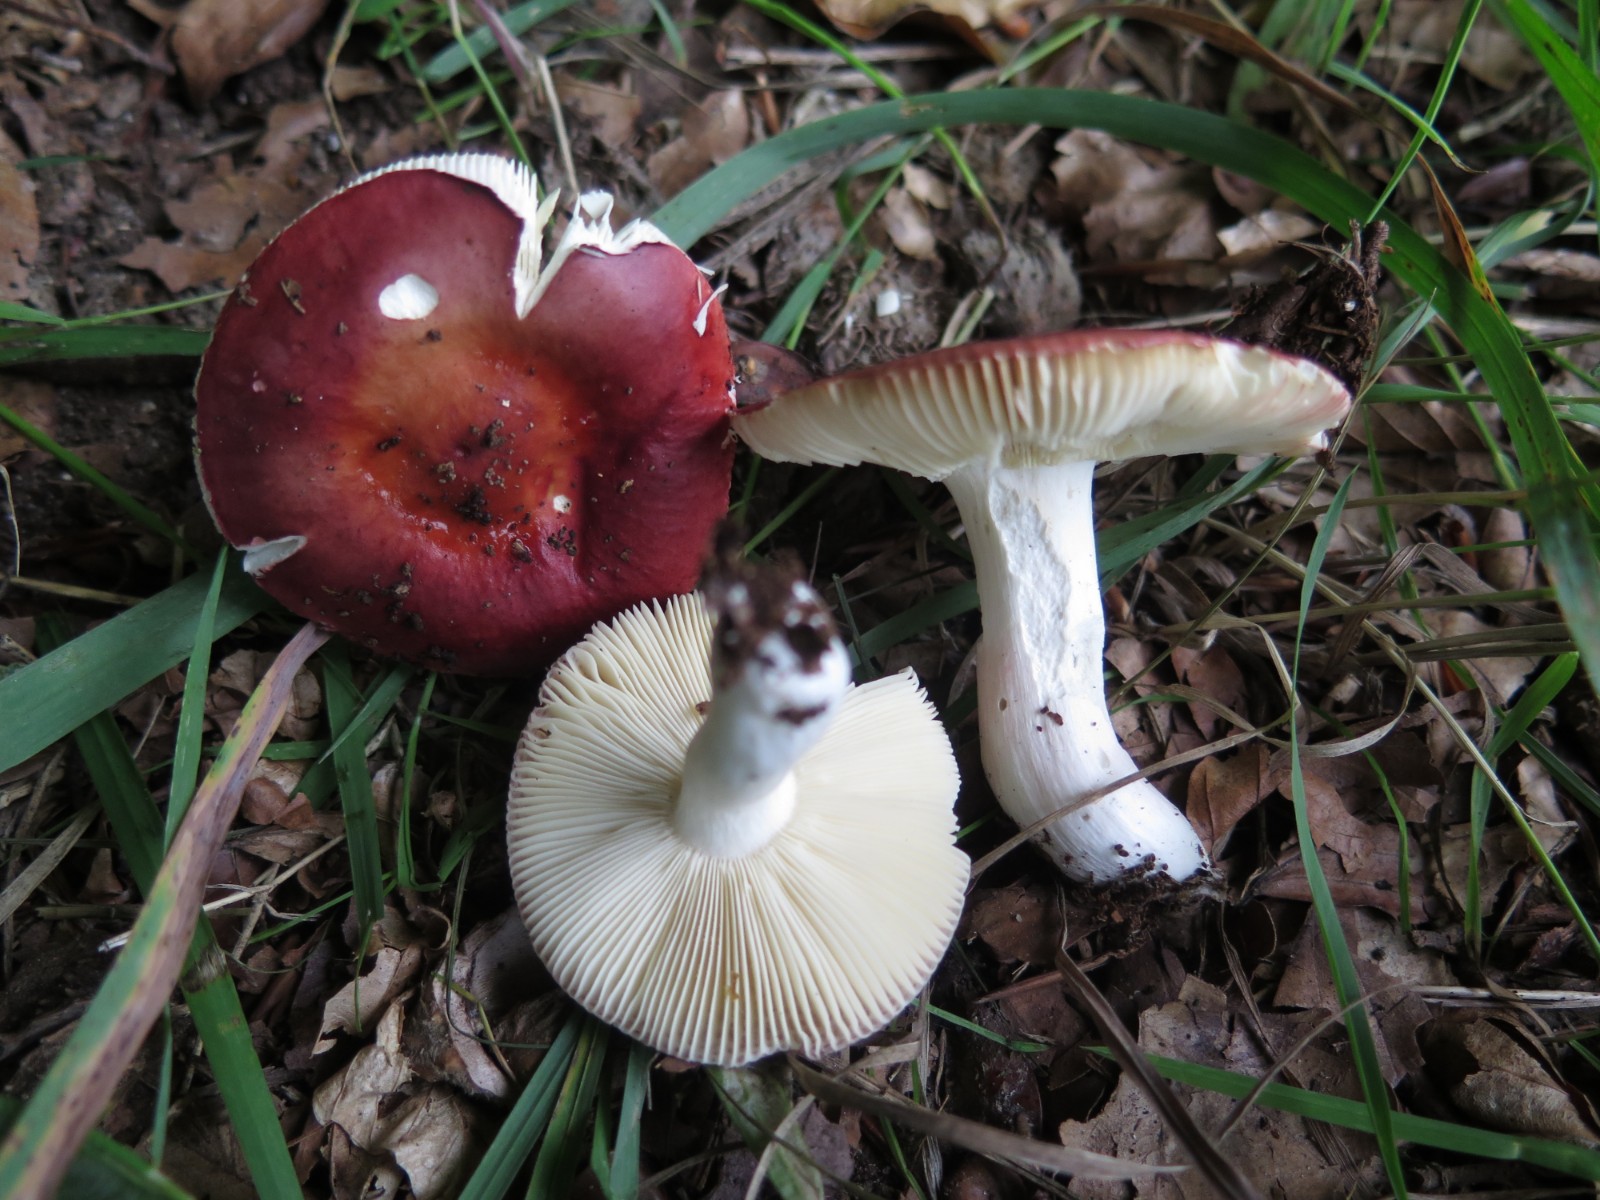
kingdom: Fungi
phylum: Basidiomycota
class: Agaricomycetes
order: Russulales
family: Russulaceae
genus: Russula
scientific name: Russula velenovskyi
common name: orangerød skørhat
